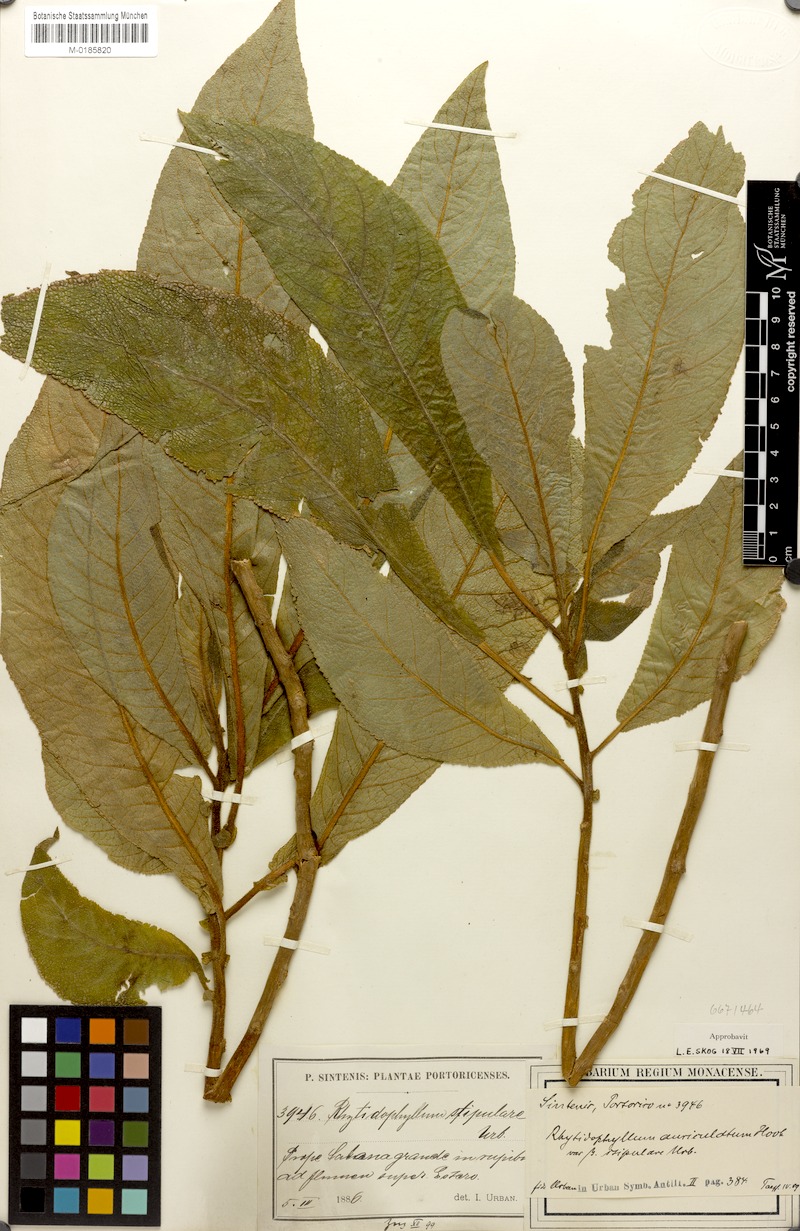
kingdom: Plantae
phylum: Tracheophyta
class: Magnoliopsida
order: Lamiales
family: Gesneriaceae
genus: Rhytidophyllum
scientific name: Rhytidophyllum auriculatum
